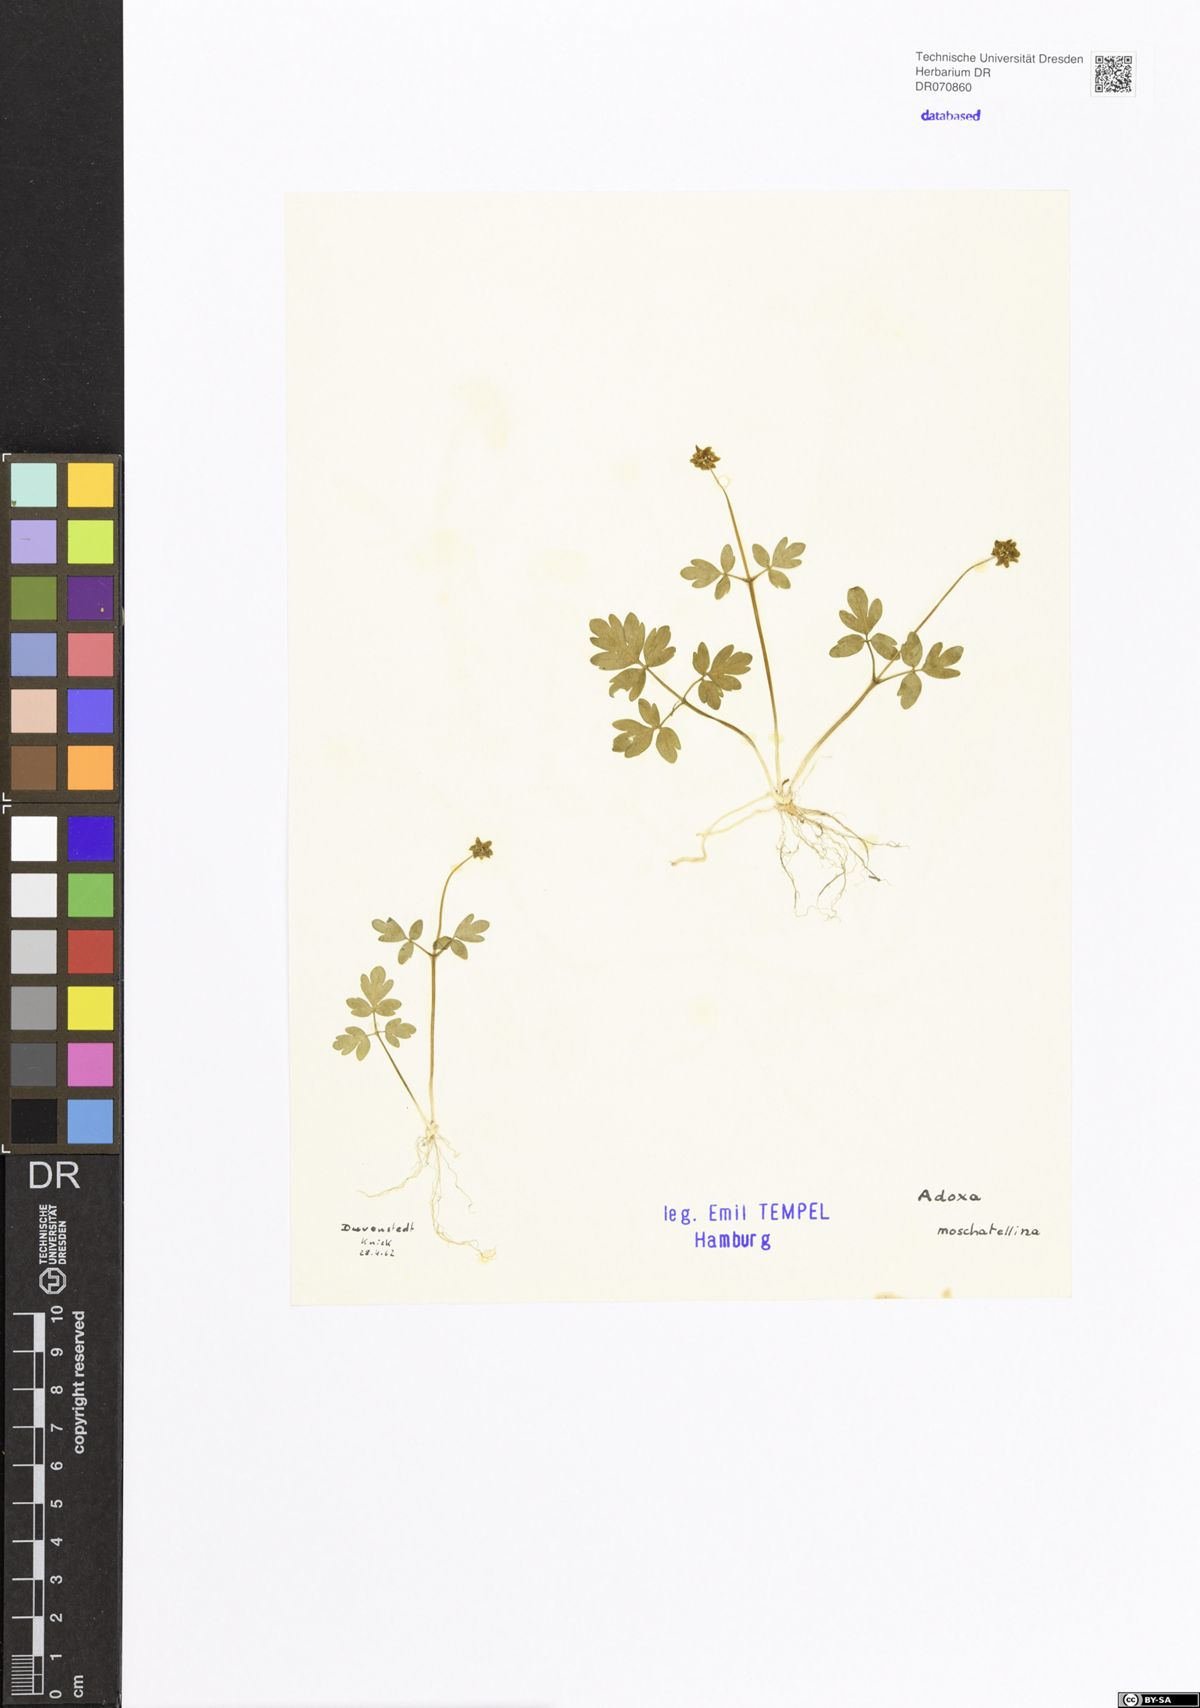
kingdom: Plantae
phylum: Tracheophyta
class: Magnoliopsida
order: Dipsacales
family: Viburnaceae
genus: Adoxa
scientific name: Adoxa moschatellina
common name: Moschatel
